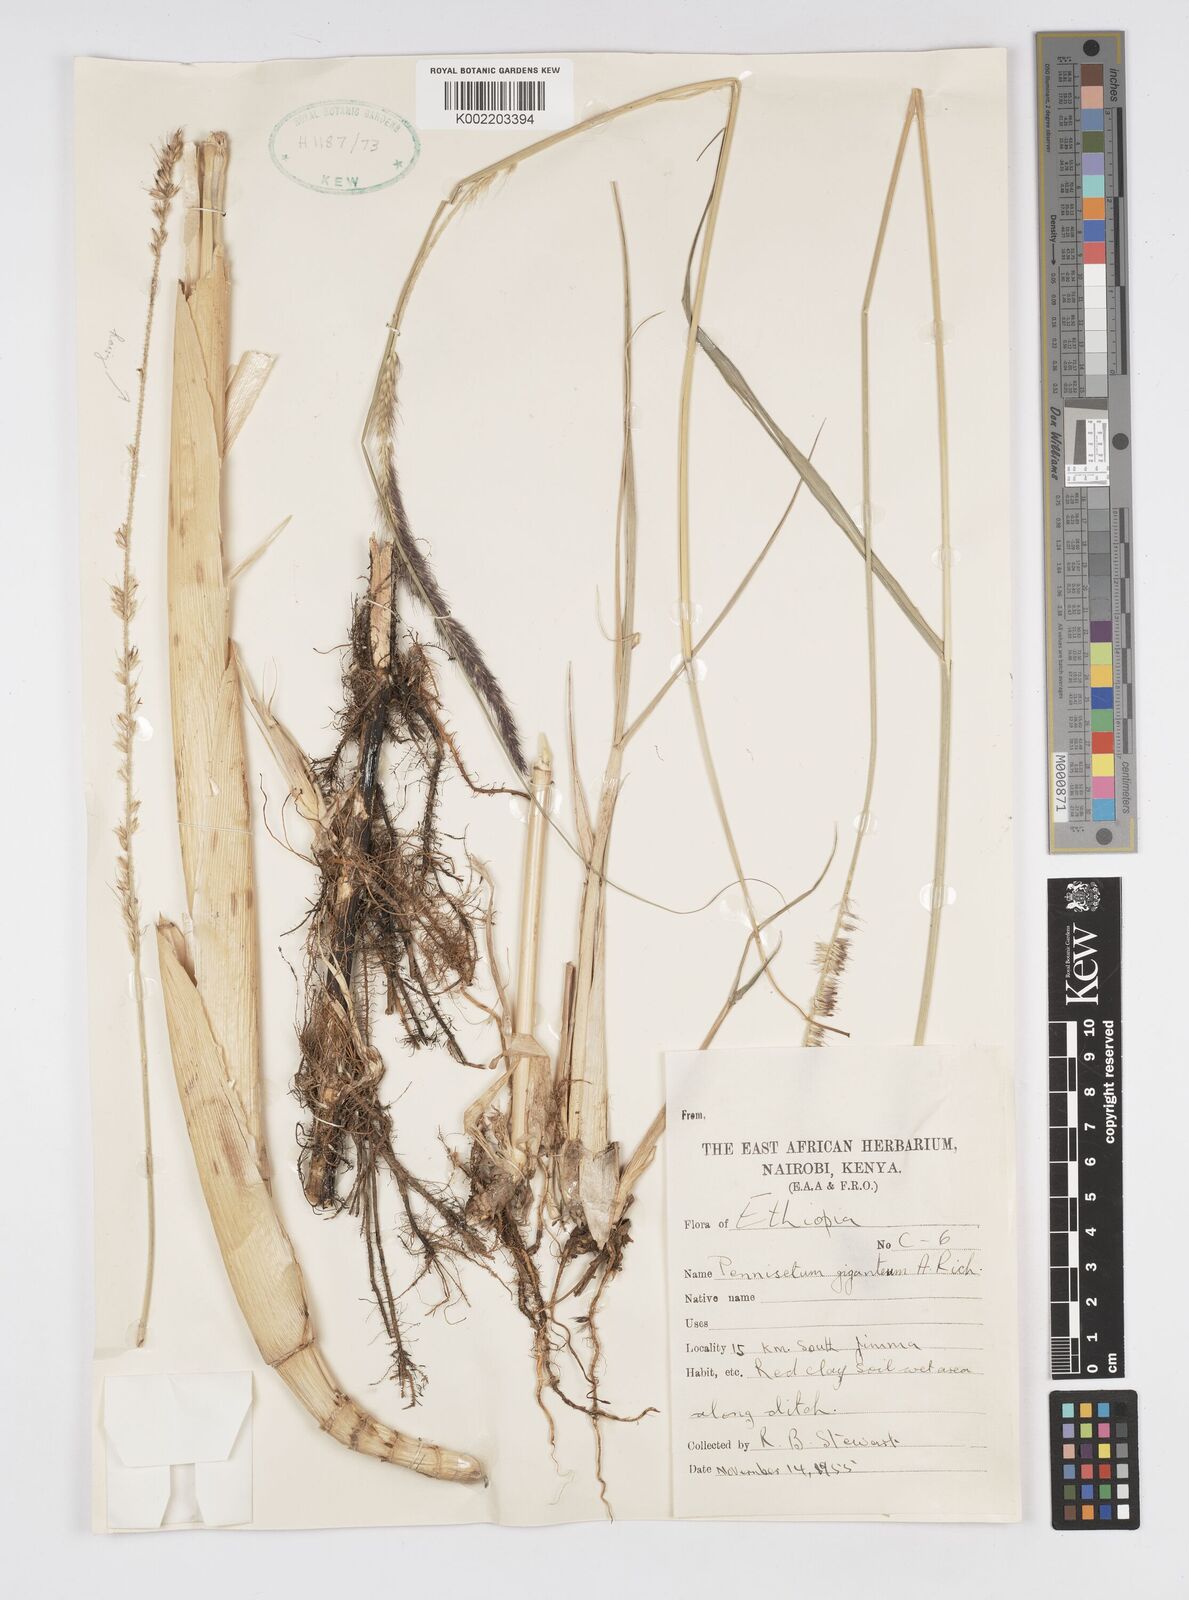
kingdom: Plantae
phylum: Tracheophyta
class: Liliopsida
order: Poales
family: Poaceae
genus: Cenchrus
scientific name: Cenchrus caudatus
